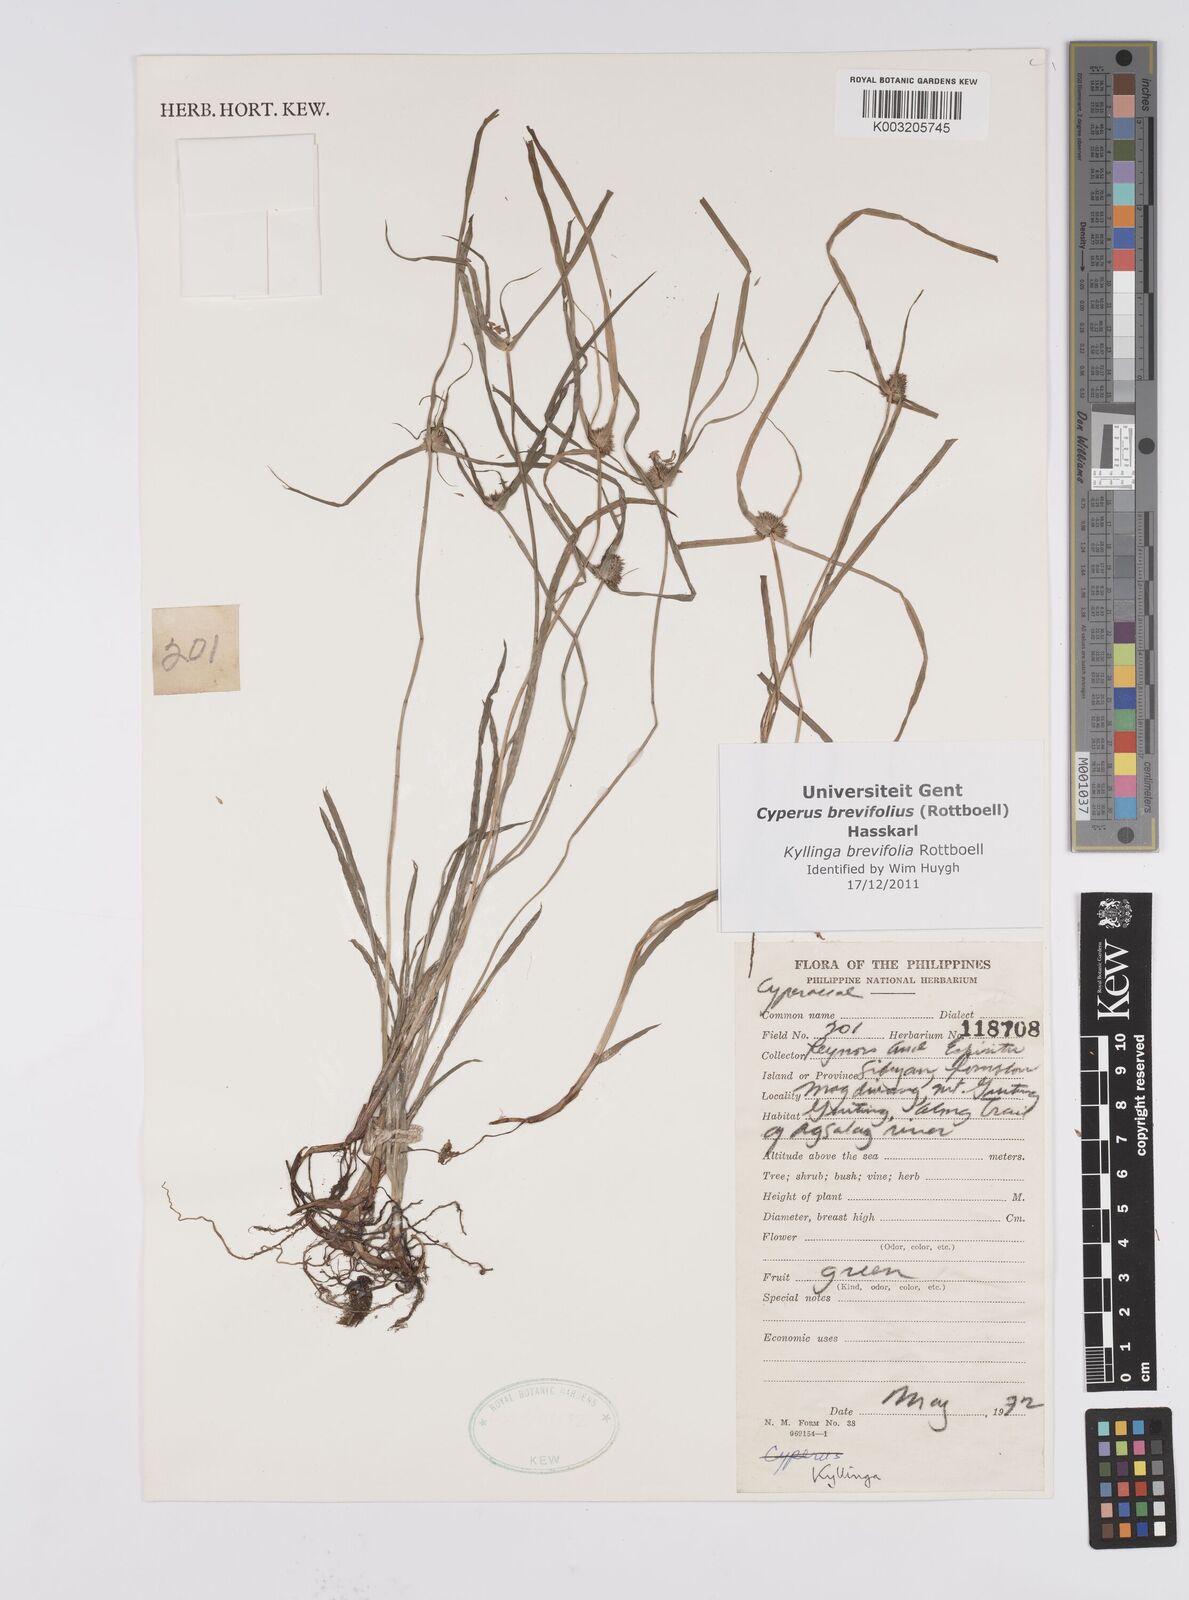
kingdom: Plantae
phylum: Tracheophyta
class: Liliopsida
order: Poales
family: Cyperaceae
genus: Cyperus
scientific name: Cyperus brevifolius
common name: Globe kyllinga
